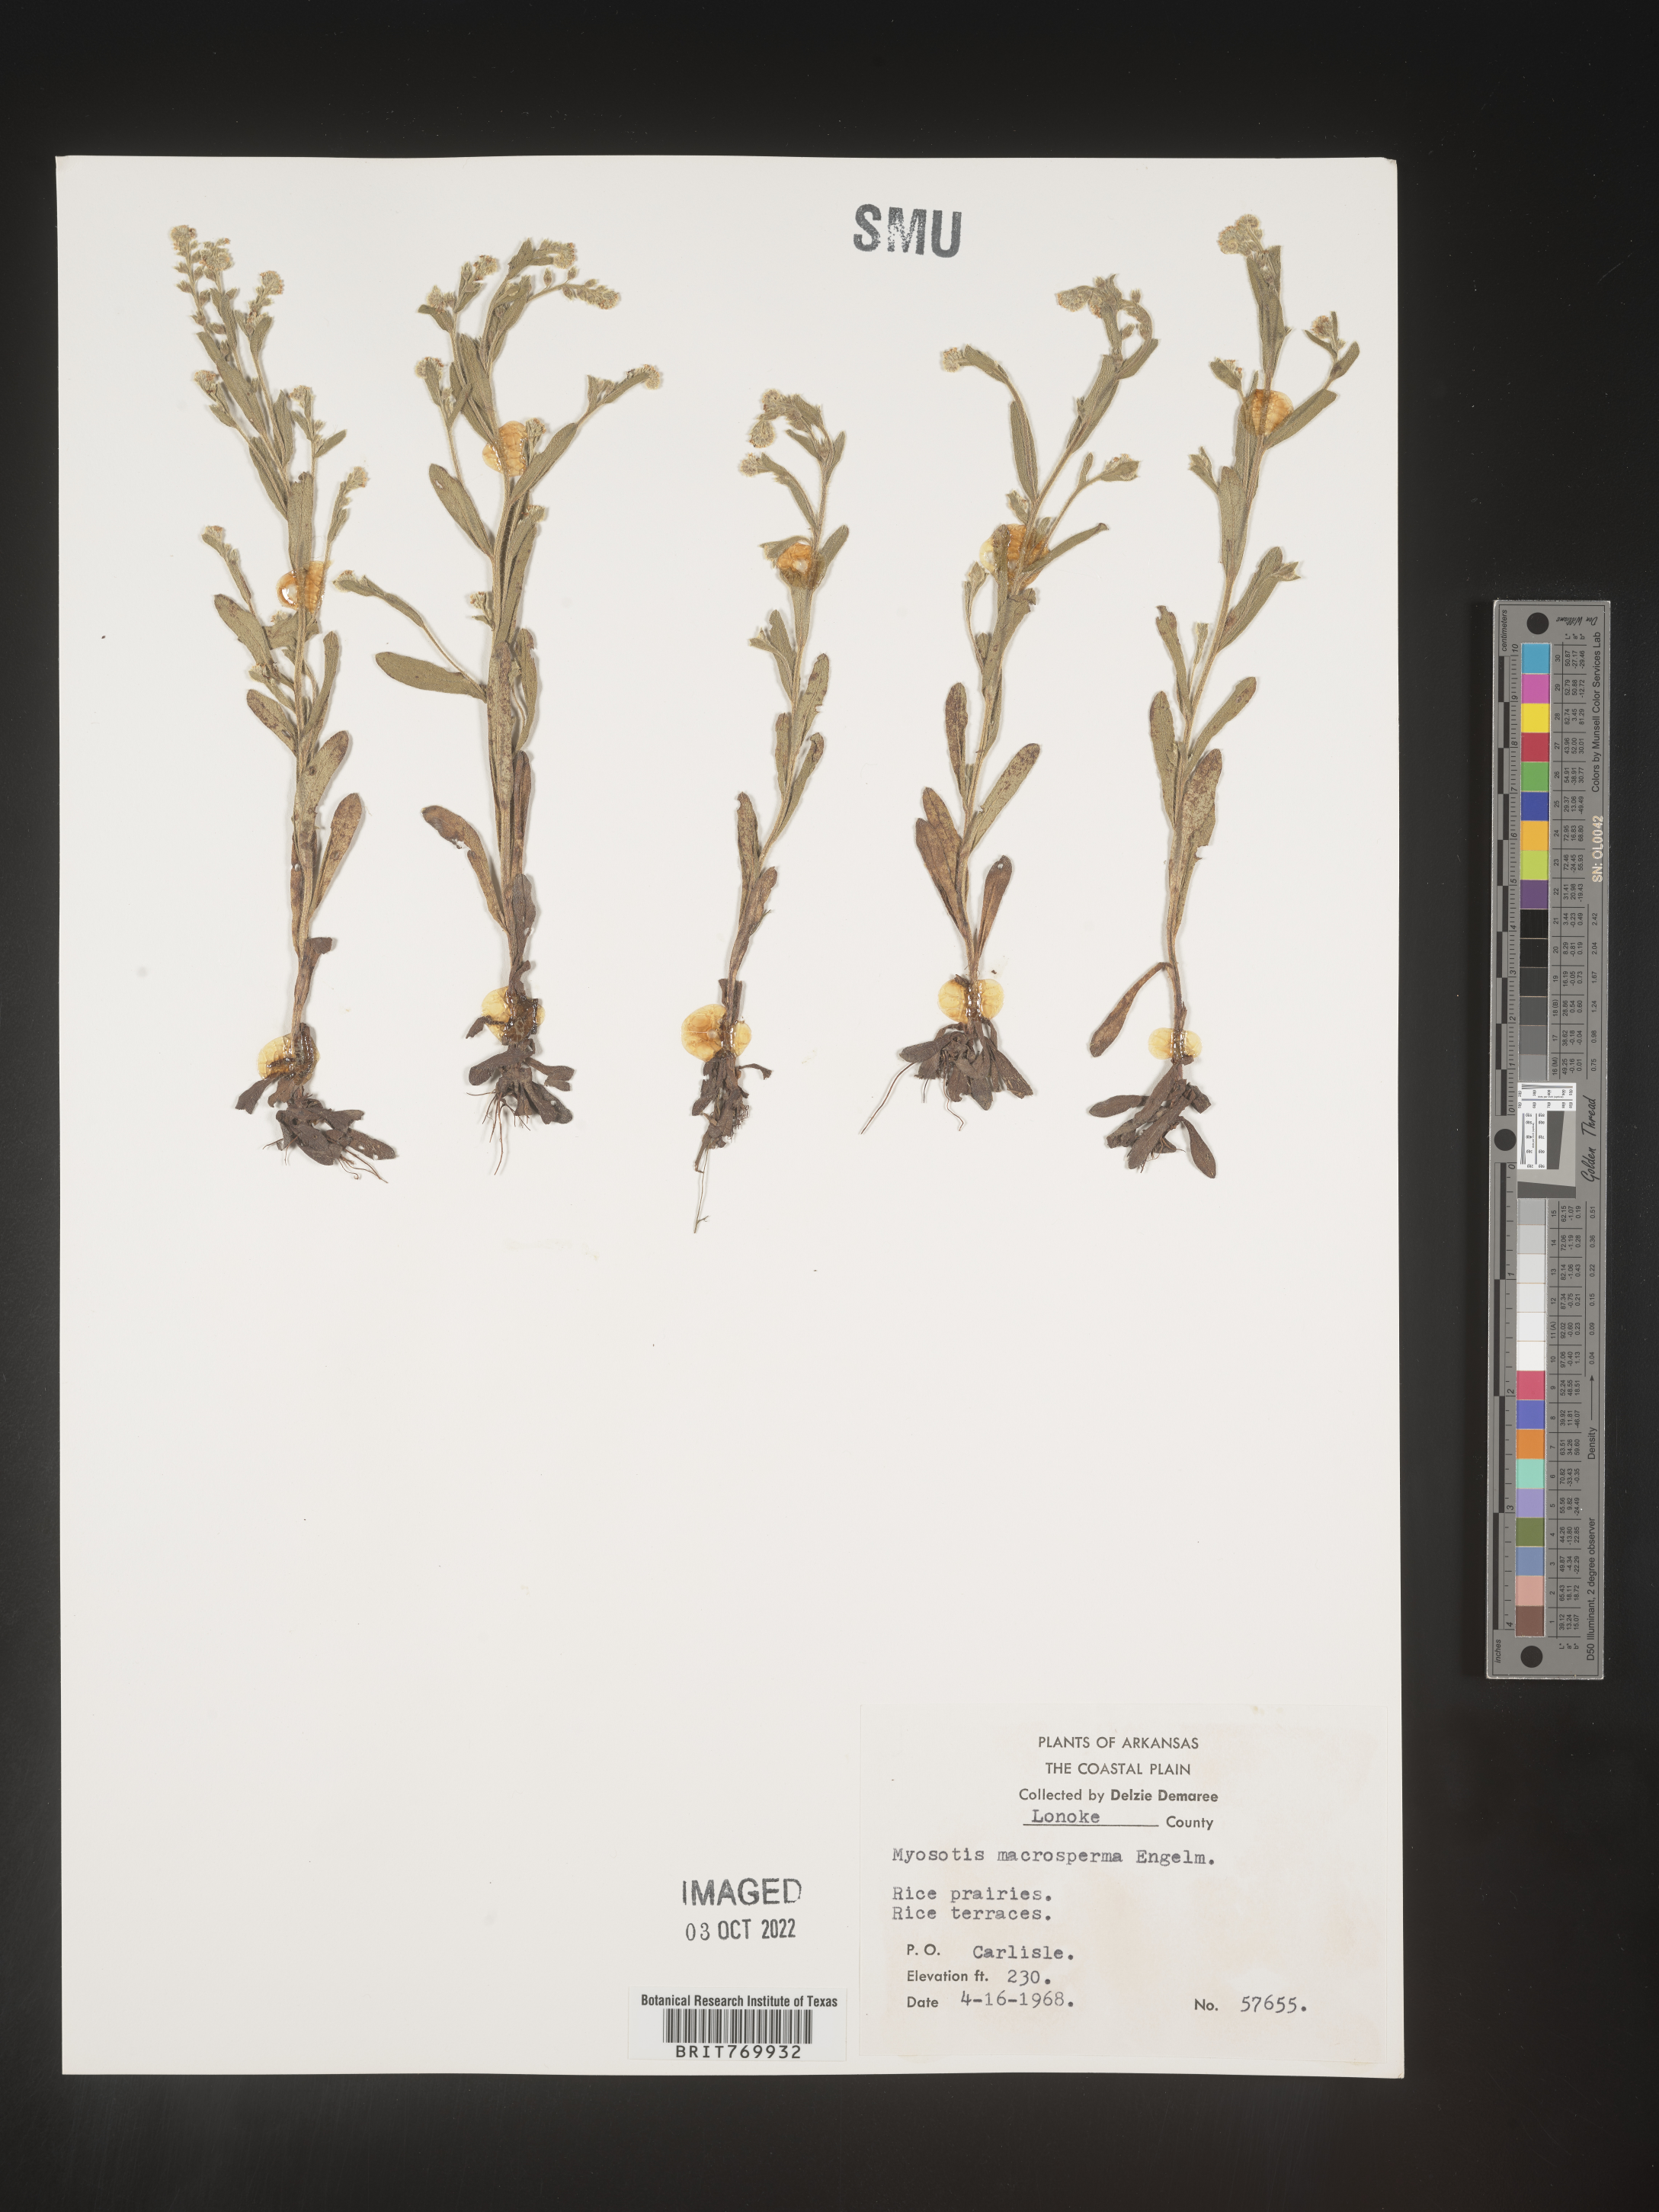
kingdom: Plantae
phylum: Tracheophyta
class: Magnoliopsida
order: Boraginales
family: Boraginaceae
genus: Myosotis
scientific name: Myosotis verna
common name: Early forget-me-not
